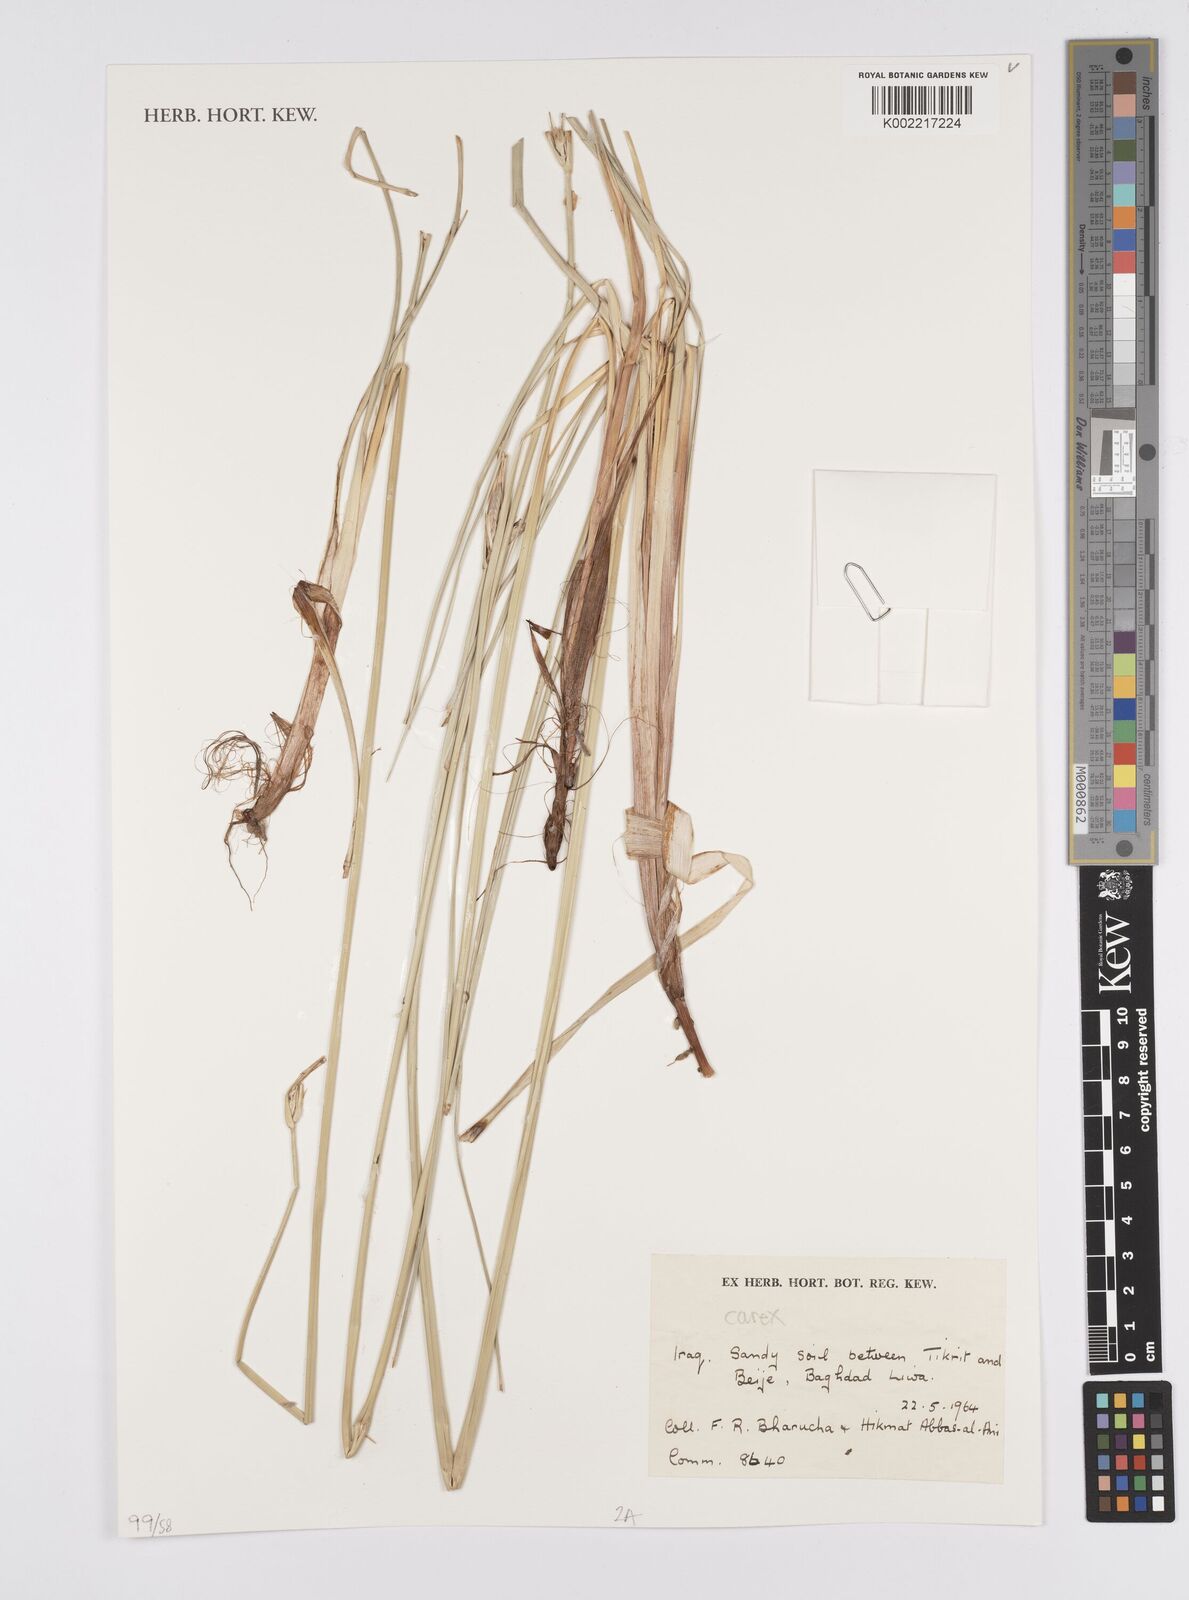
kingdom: Plantae
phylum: Tracheophyta
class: Liliopsida
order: Poales
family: Cyperaceae
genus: Carex
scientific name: Carex
